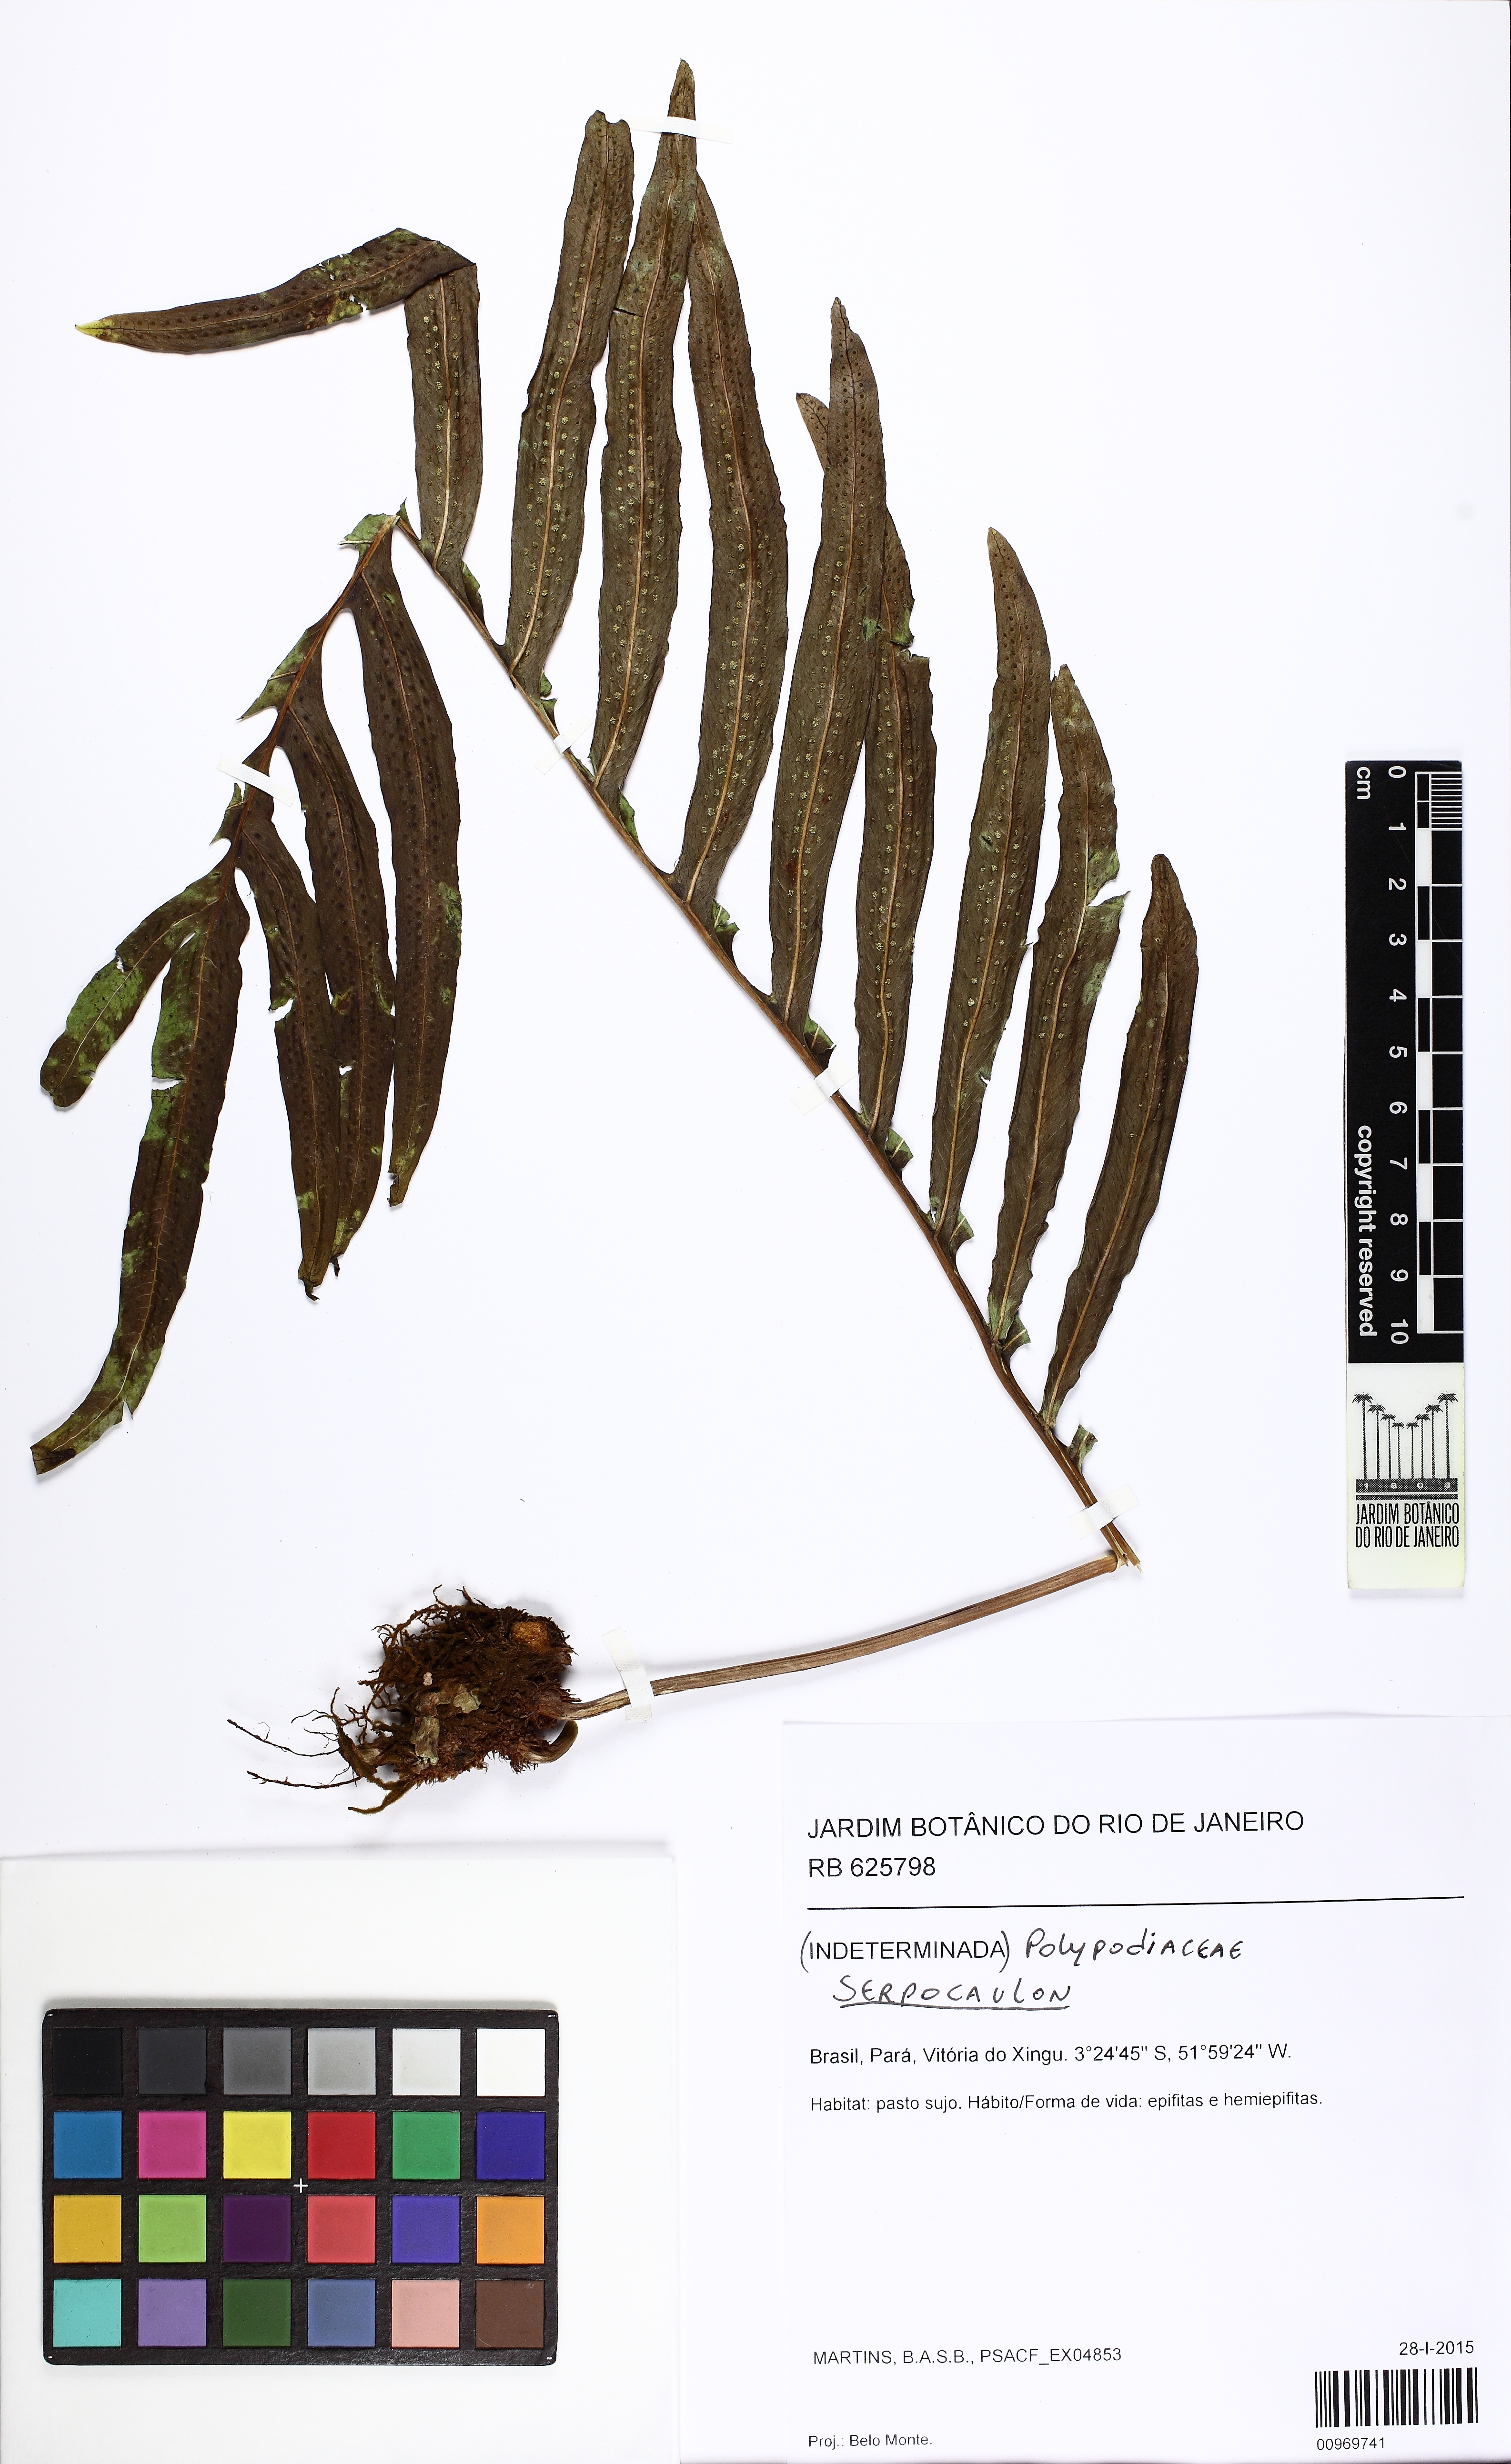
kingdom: Plantae
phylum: Tracheophyta
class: Polypodiopsida
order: Polypodiales
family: Polypodiaceae
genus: Serpocaulon
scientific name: Serpocaulon
